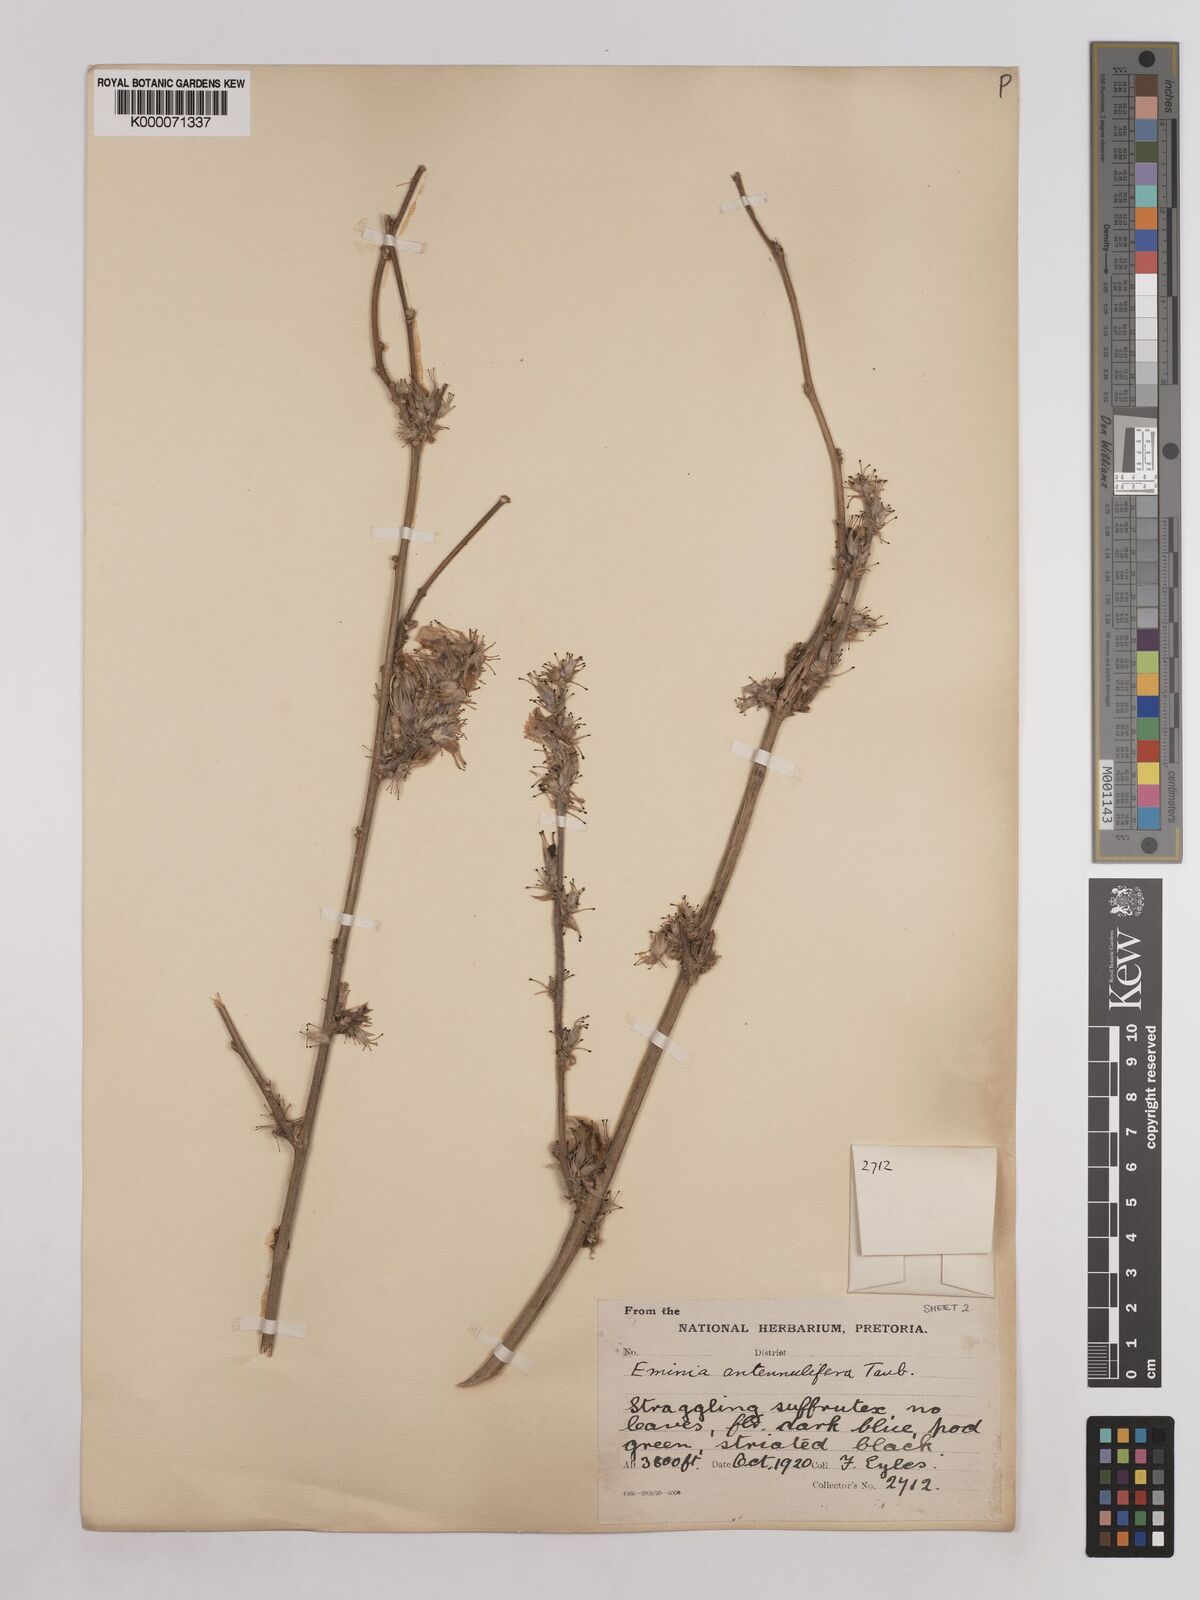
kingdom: Plantae
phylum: Tracheophyta
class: Magnoliopsida
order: Fabales
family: Fabaceae
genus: Eminia
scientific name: Eminia antennulifera
